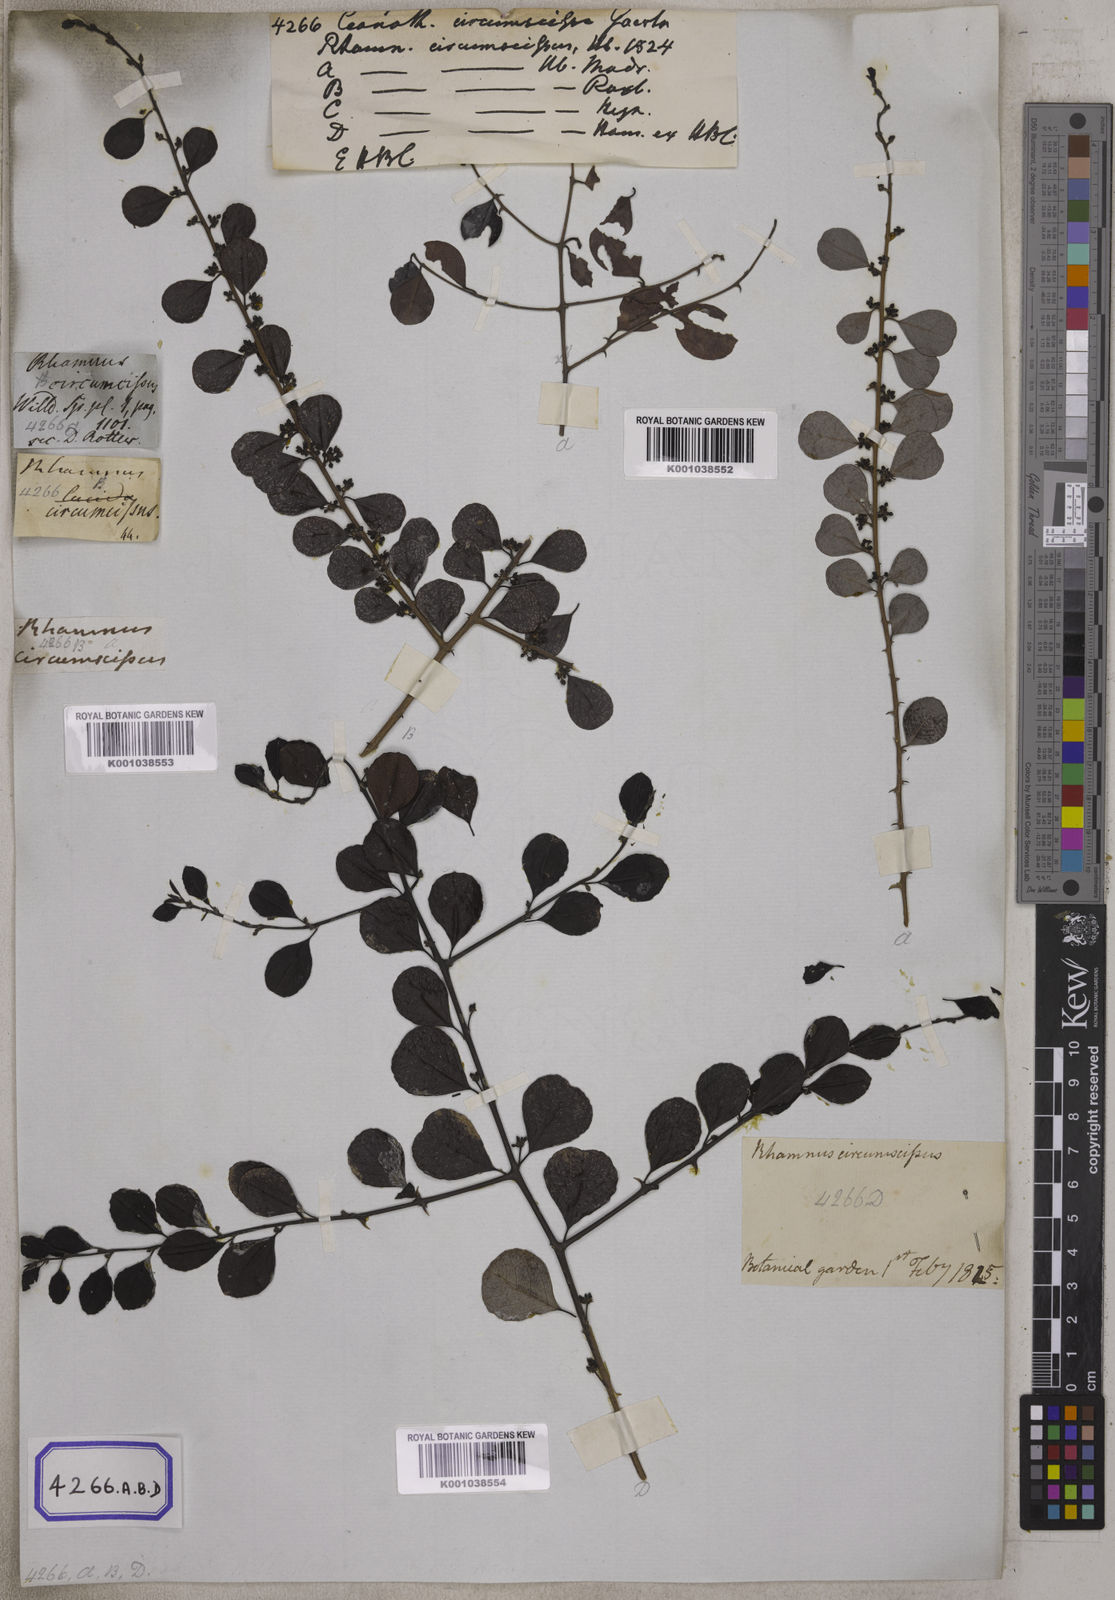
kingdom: Plantae
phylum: Tracheophyta
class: Magnoliopsida
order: Rosales
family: Rhamnaceae
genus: Scutia
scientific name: Scutia myrtina
